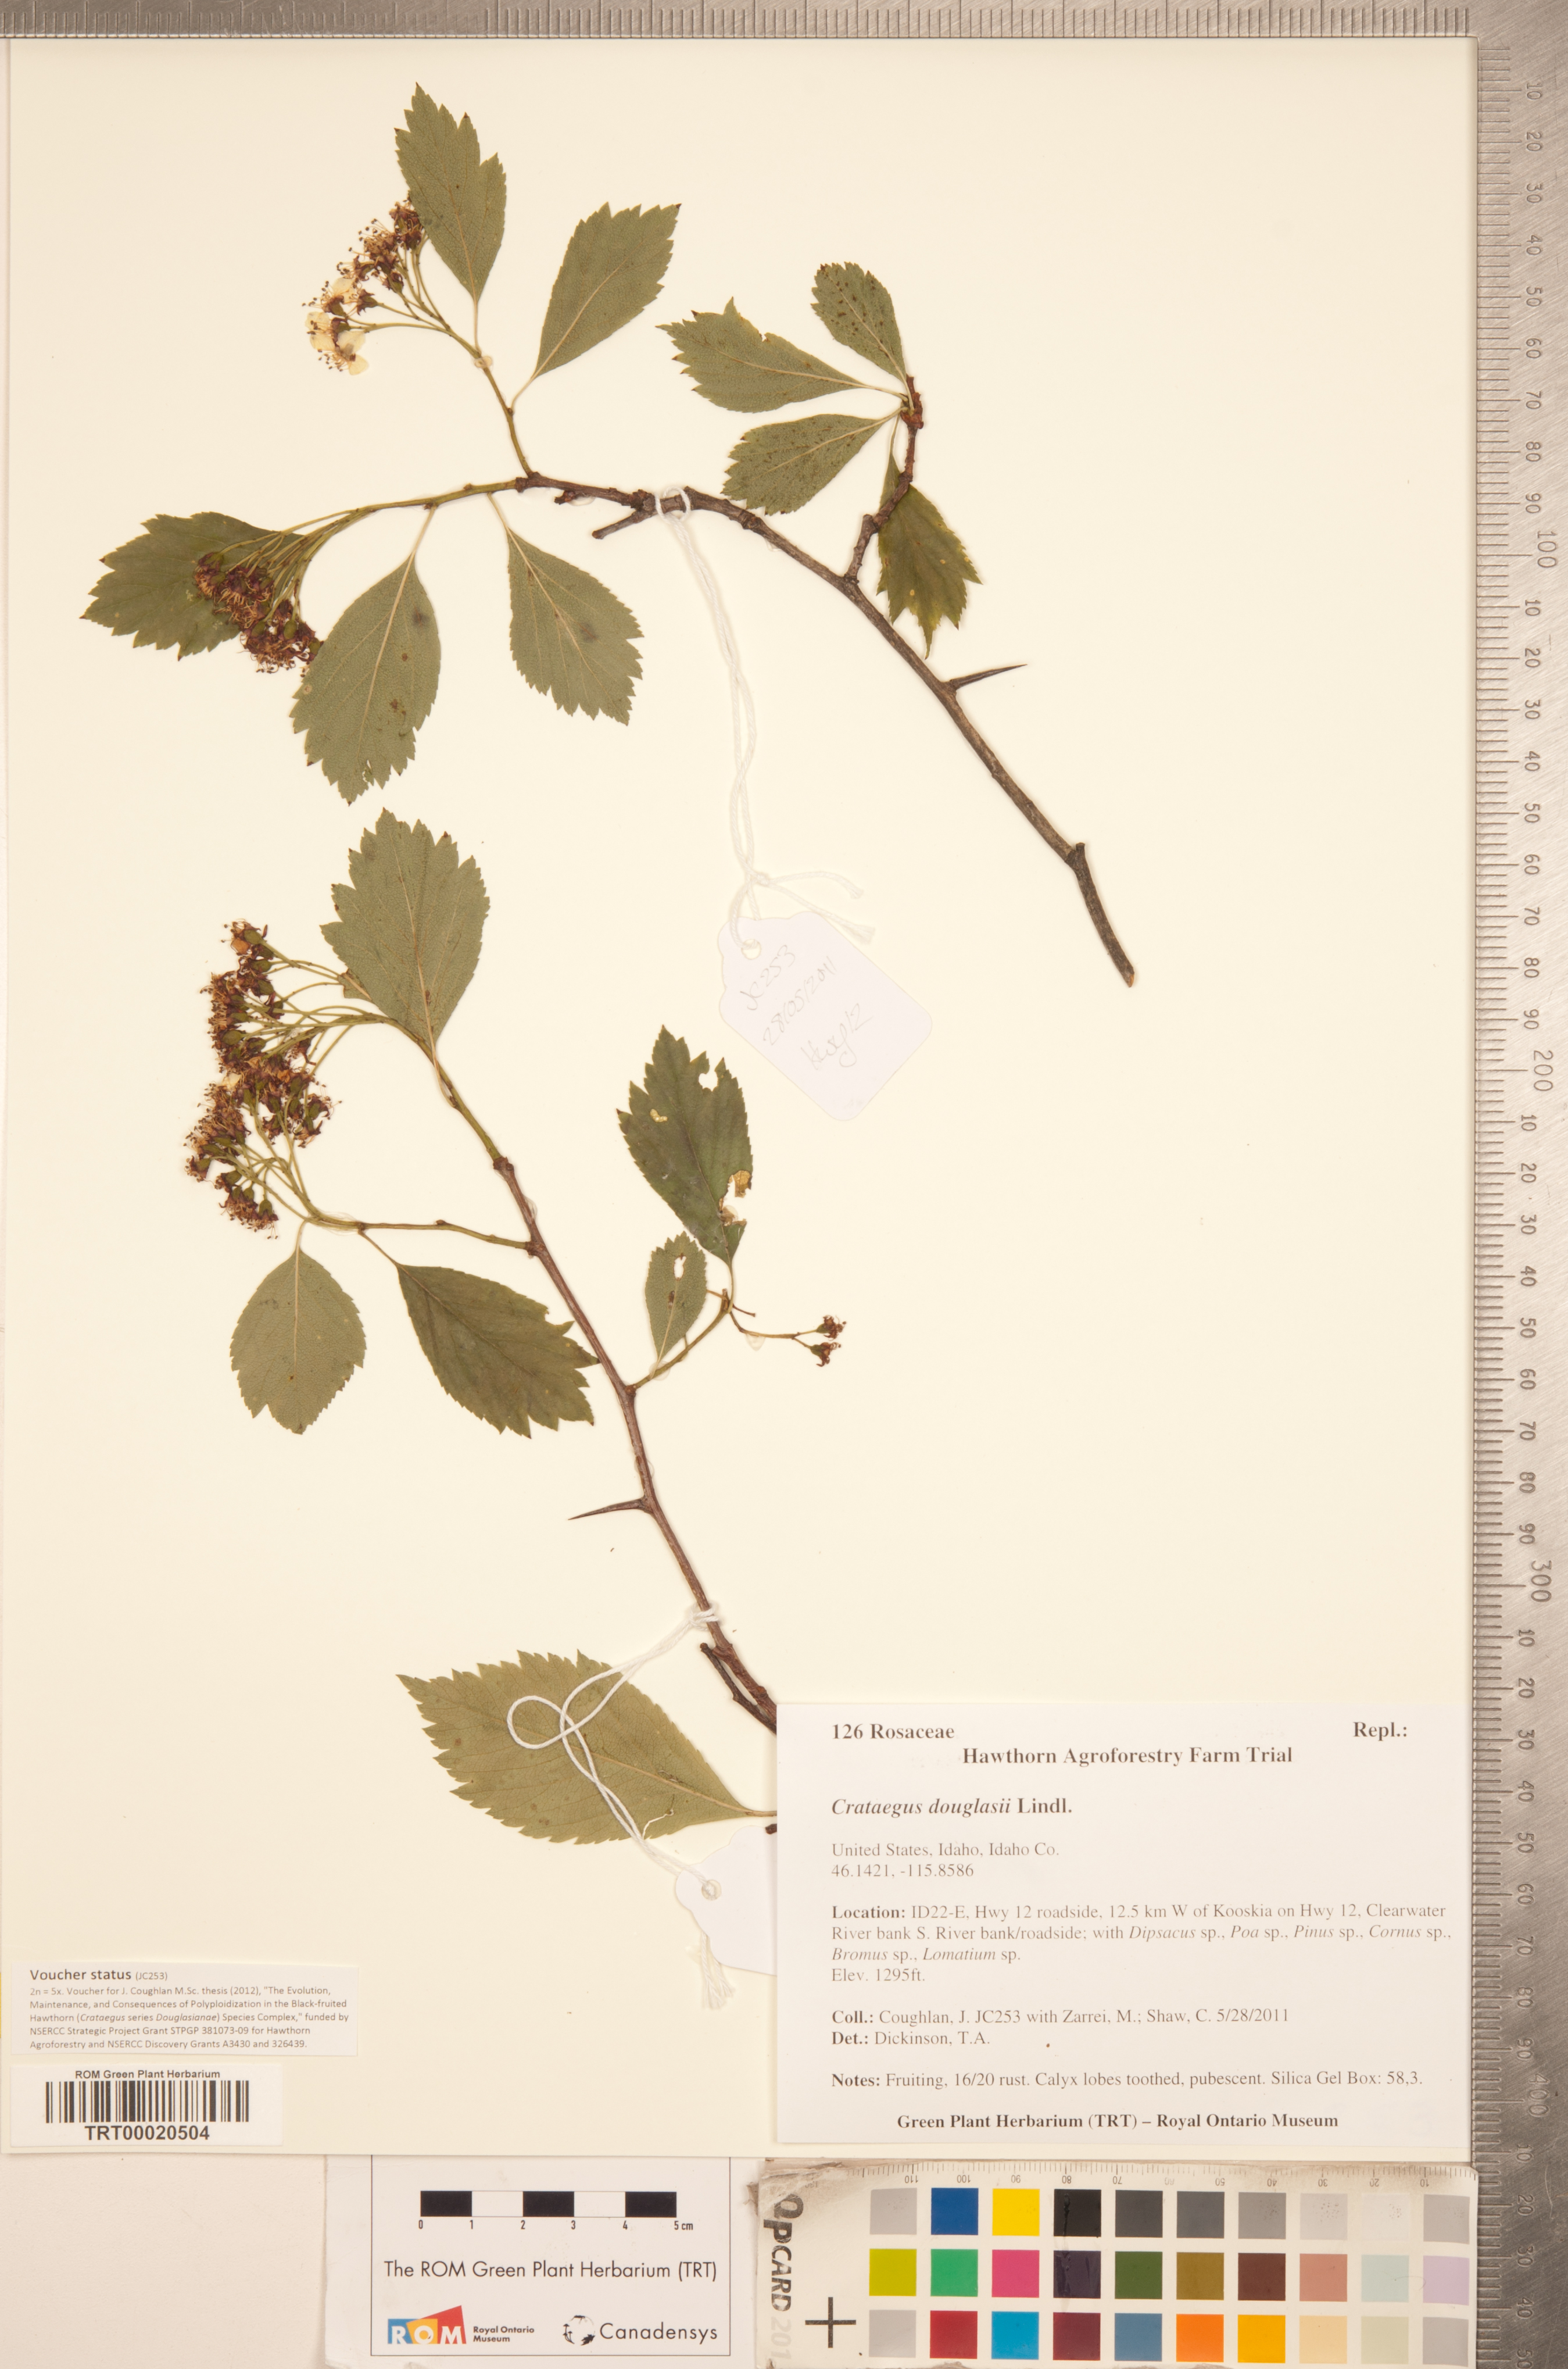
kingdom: Plantae
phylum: Tracheophyta
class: Magnoliopsida
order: Rosales
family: Rosaceae
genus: Crataegus
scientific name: Crataegus douglasii
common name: Black hawthorn
